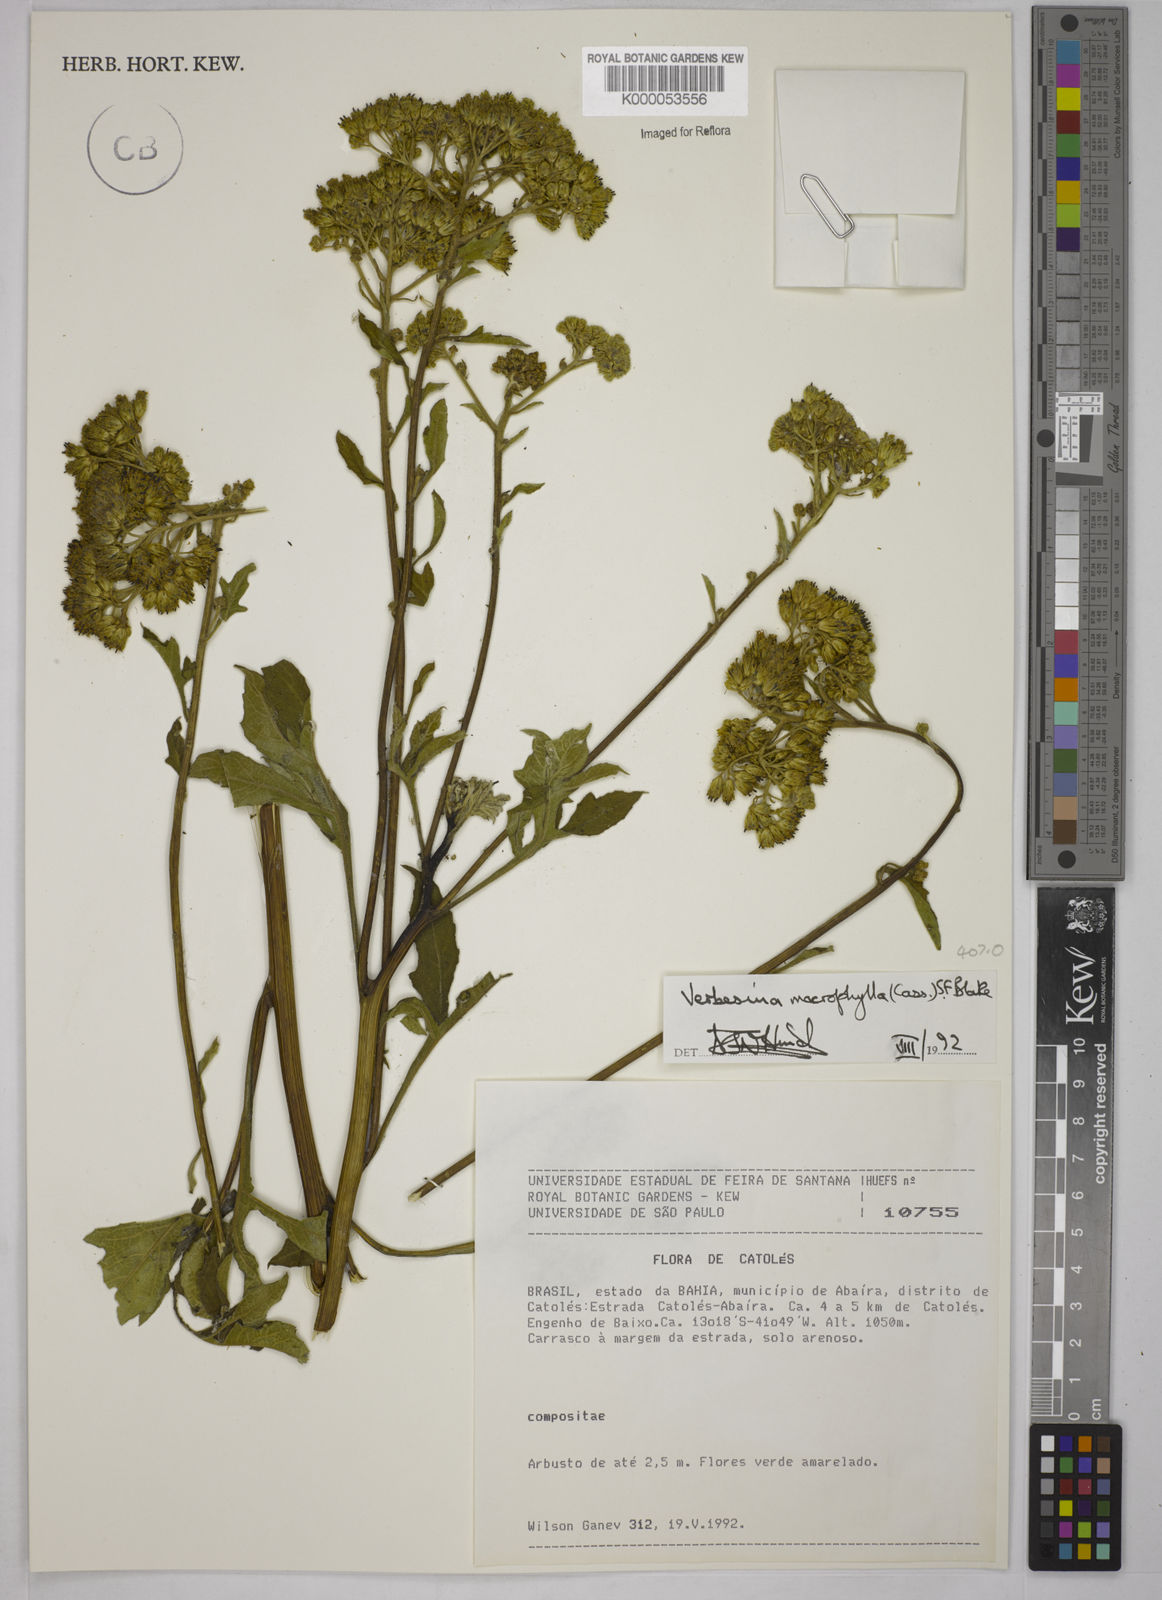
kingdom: Plantae
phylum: Tracheophyta
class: Magnoliopsida
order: Asterales
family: Asteraceae
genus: Verbesina
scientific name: Verbesina macrophylla
